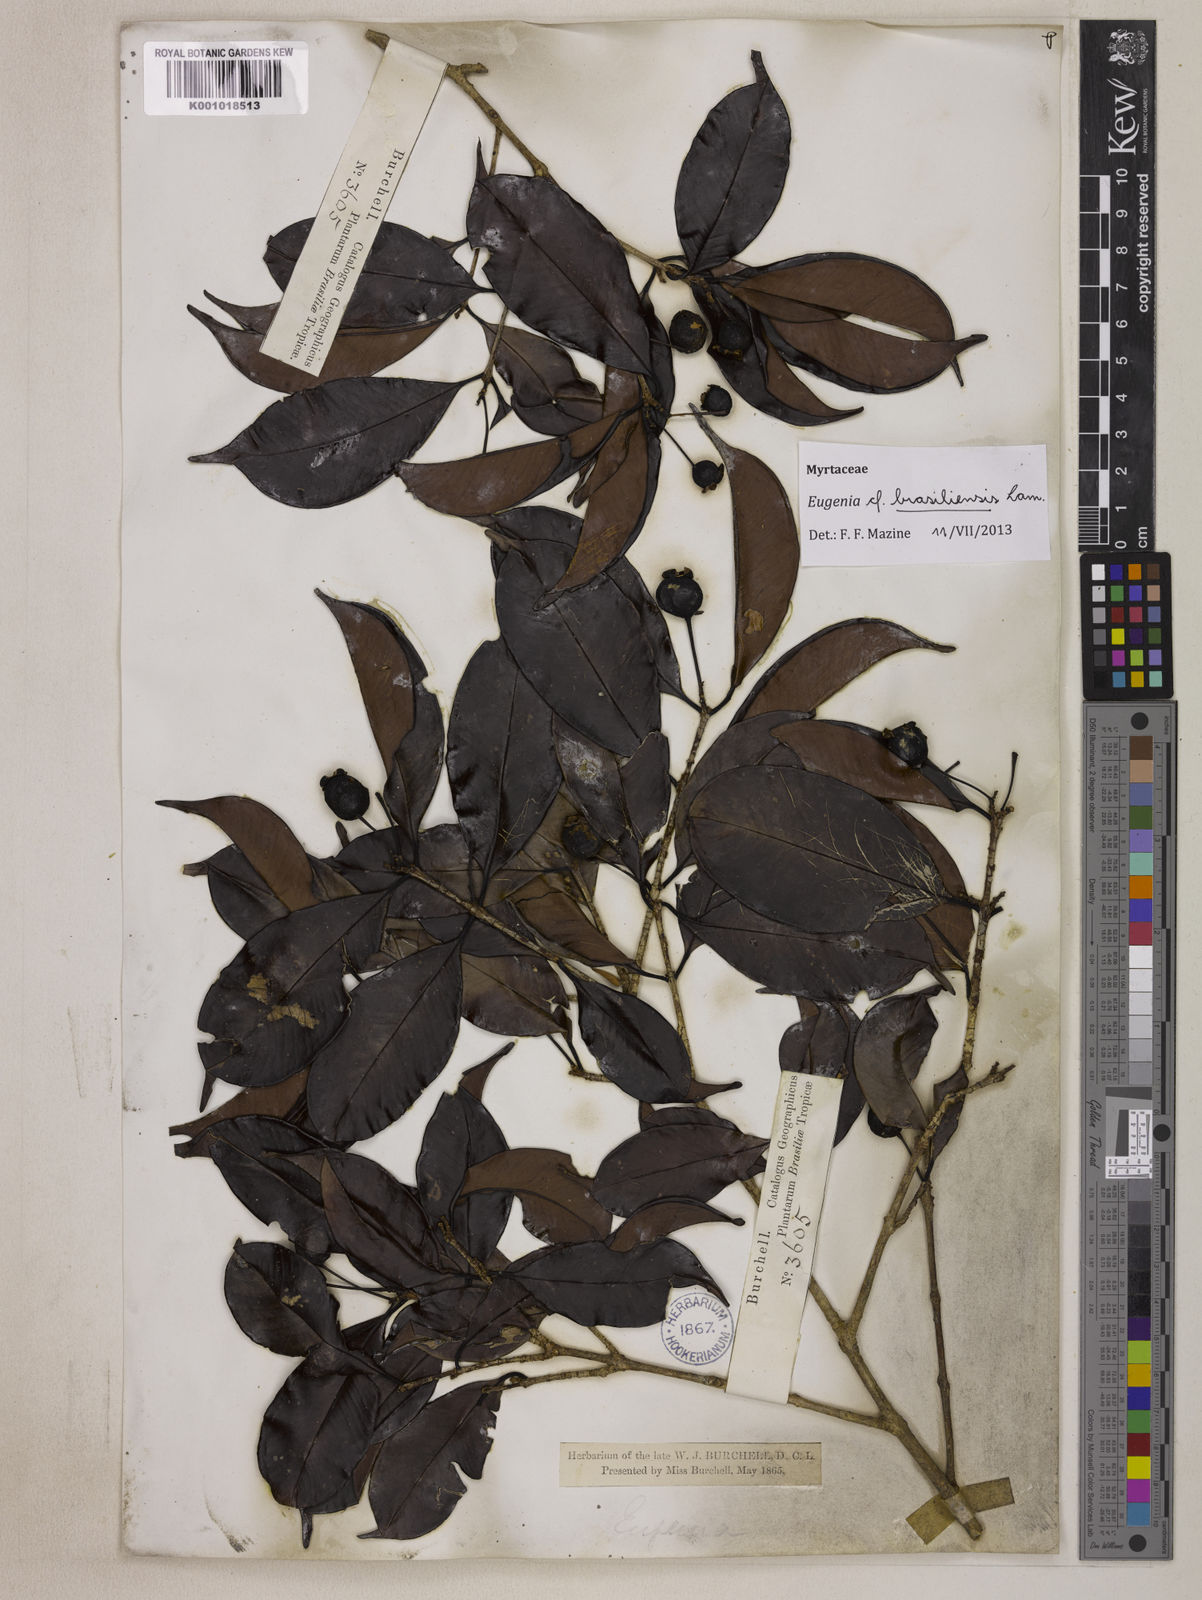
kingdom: Plantae
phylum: Tracheophyta
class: Magnoliopsida
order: Myrtales
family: Myrtaceae
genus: Eugenia
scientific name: Eugenia brasiliensis
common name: Grumichama
